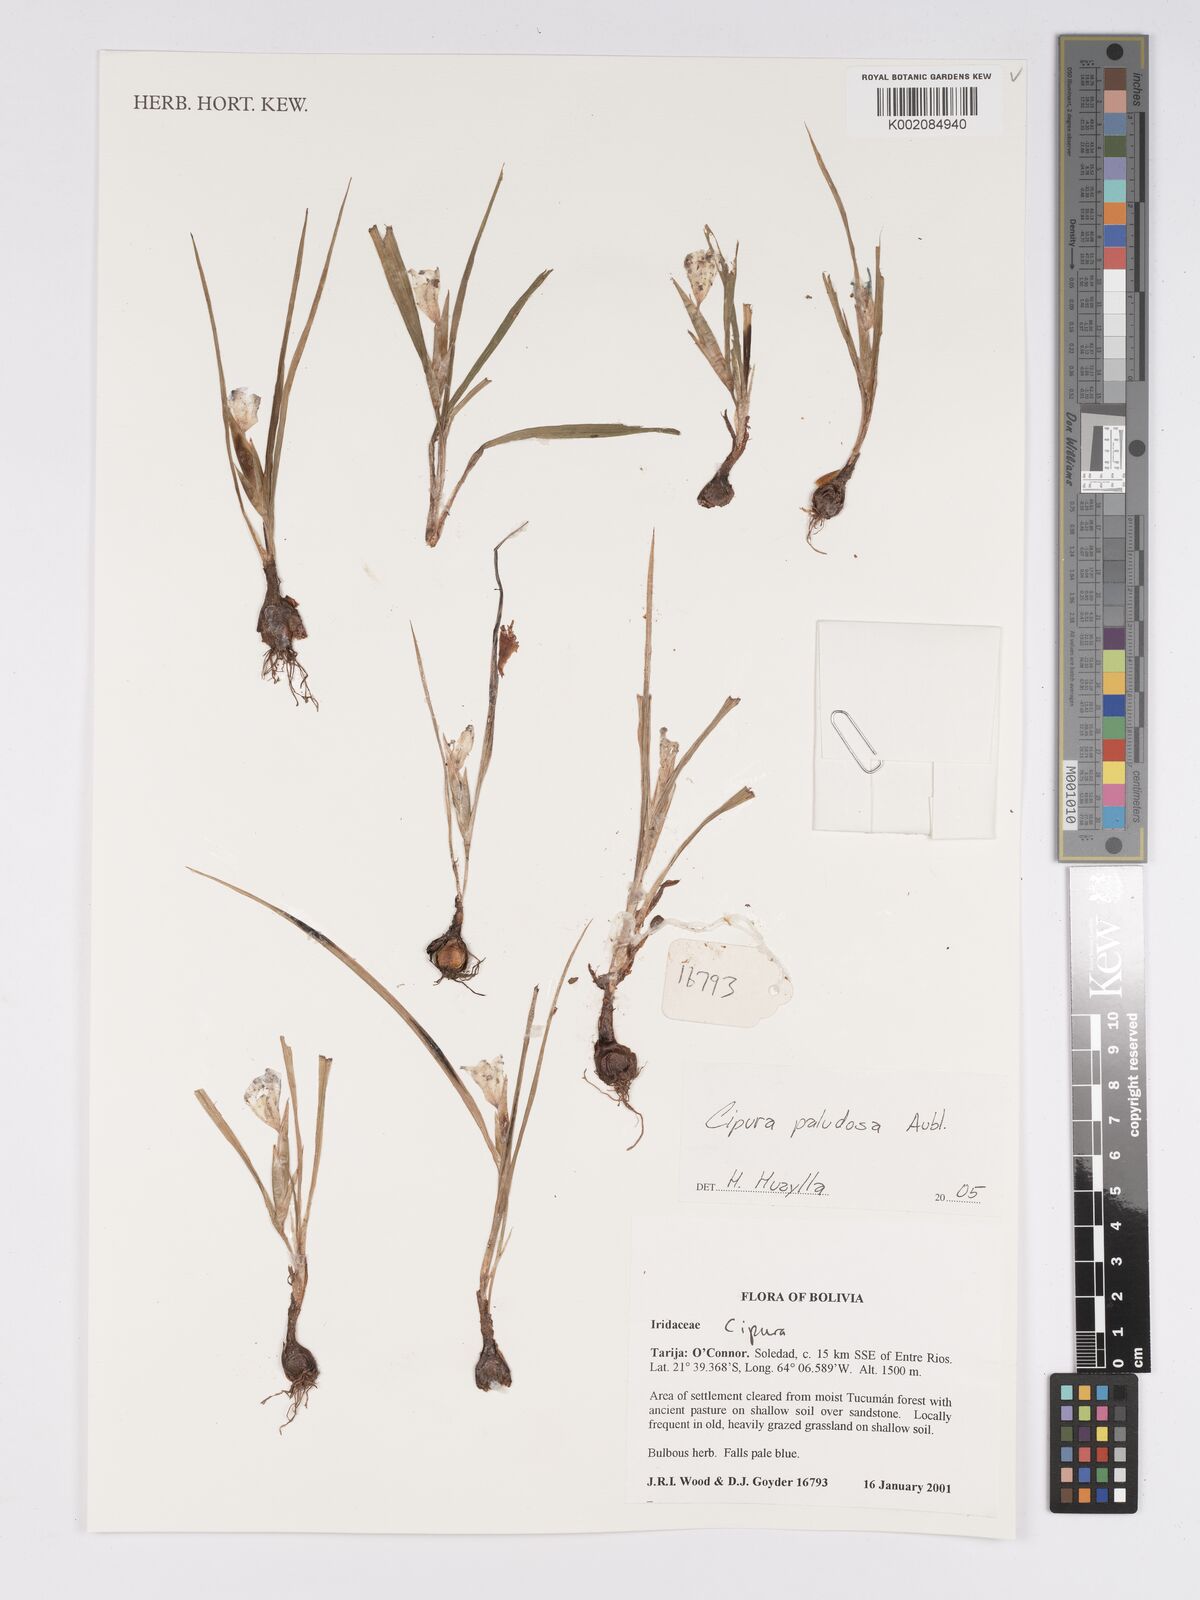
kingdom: Plantae
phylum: Tracheophyta
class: Liliopsida
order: Asparagales
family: Iridaceae
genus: Cipura
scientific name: Cipura paludosa
